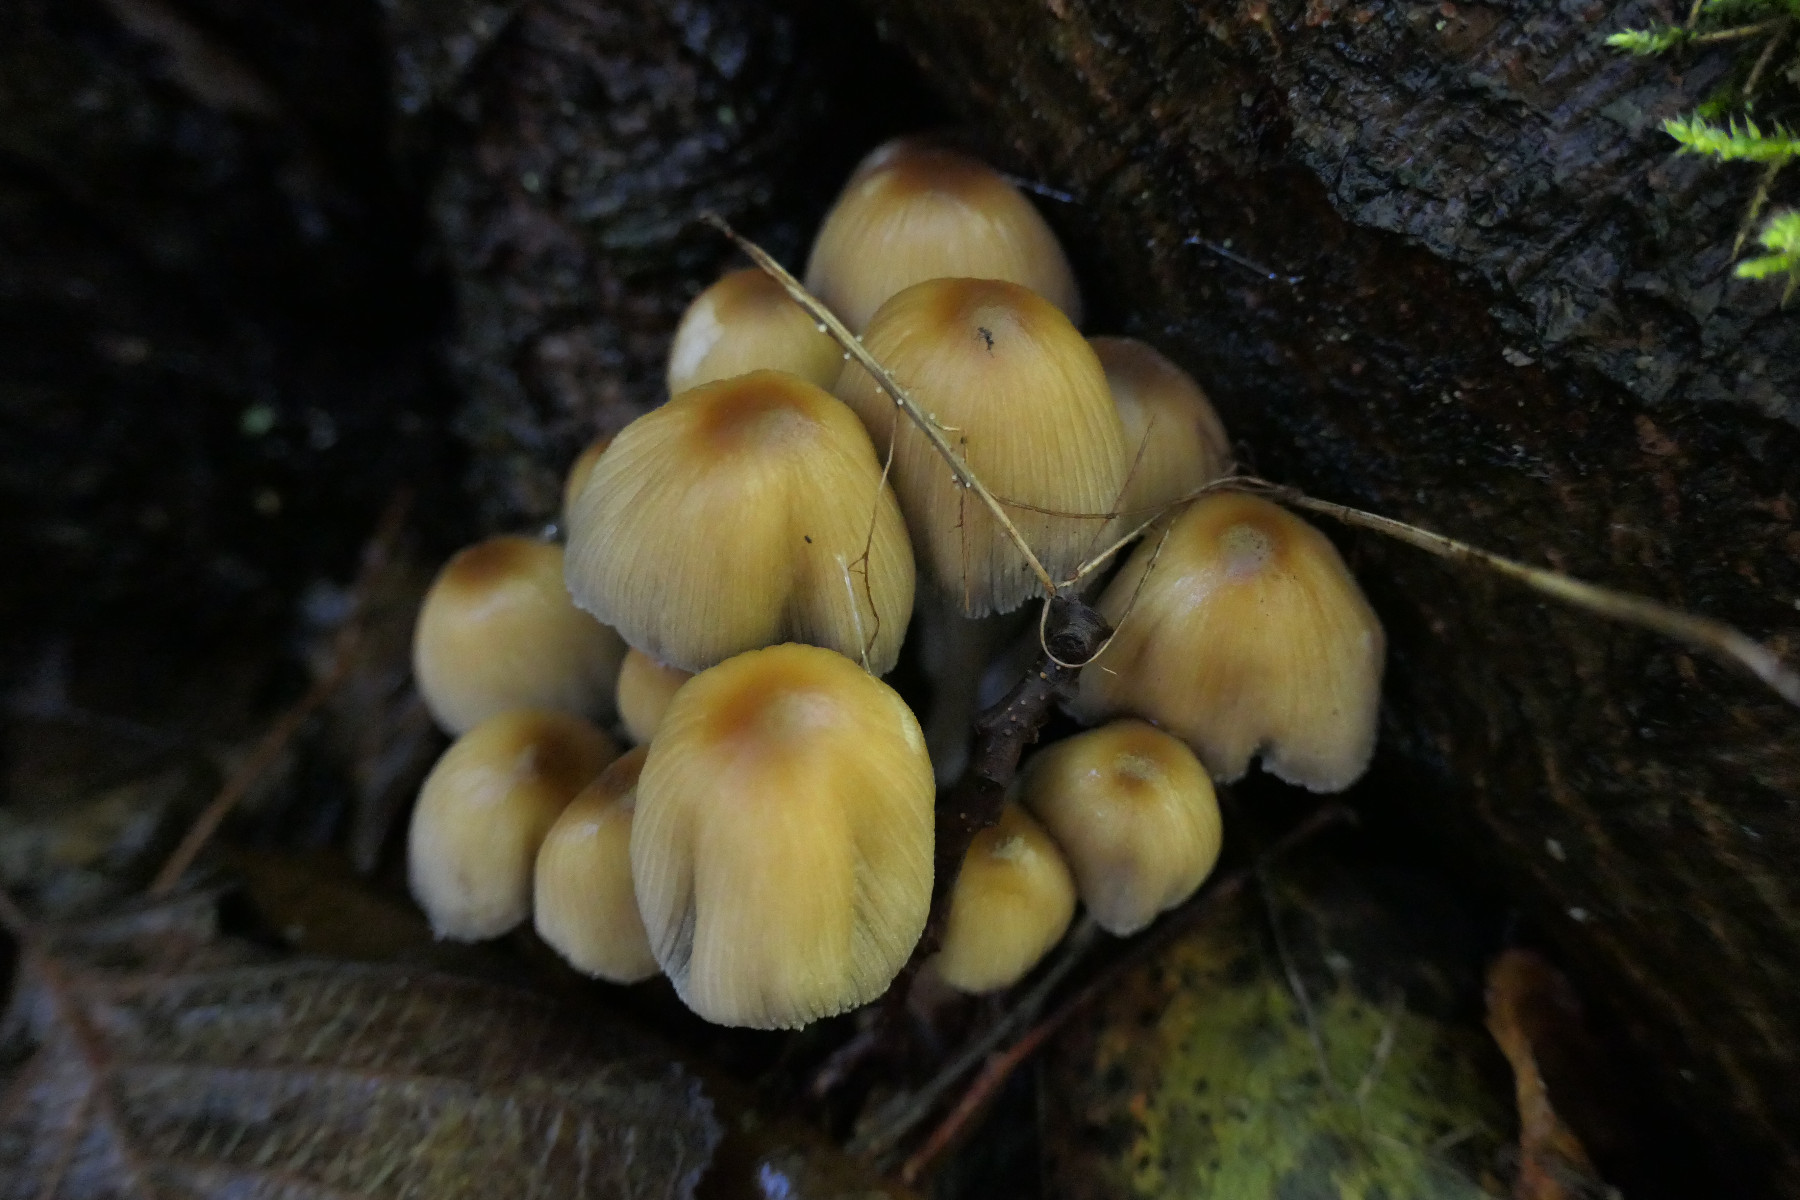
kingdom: Fungi
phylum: Basidiomycota
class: Agaricomycetes
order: Agaricales
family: Psathyrellaceae
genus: Coprinellus
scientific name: Coprinellus micaceus
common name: glimmer-blækhat
